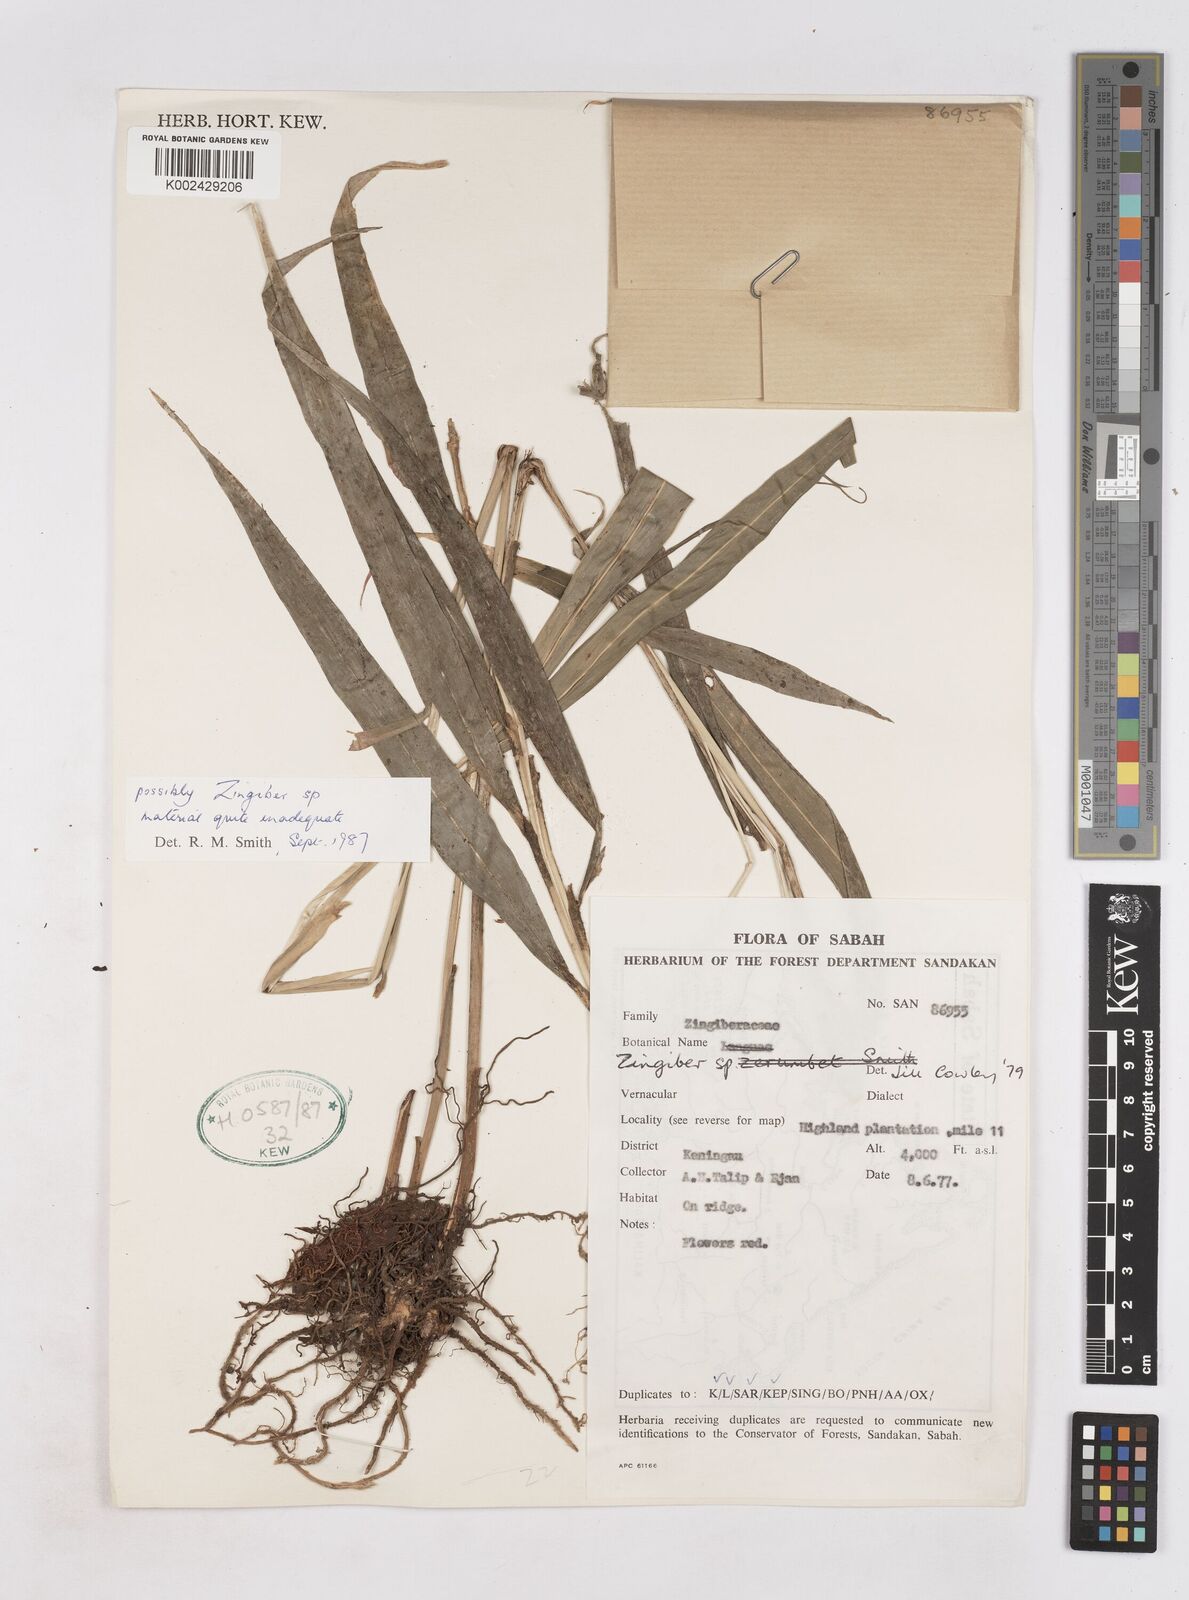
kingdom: Plantae
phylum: Tracheophyta
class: Liliopsida
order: Zingiberales
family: Zingiberaceae
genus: Zingiber
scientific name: Zingiber
